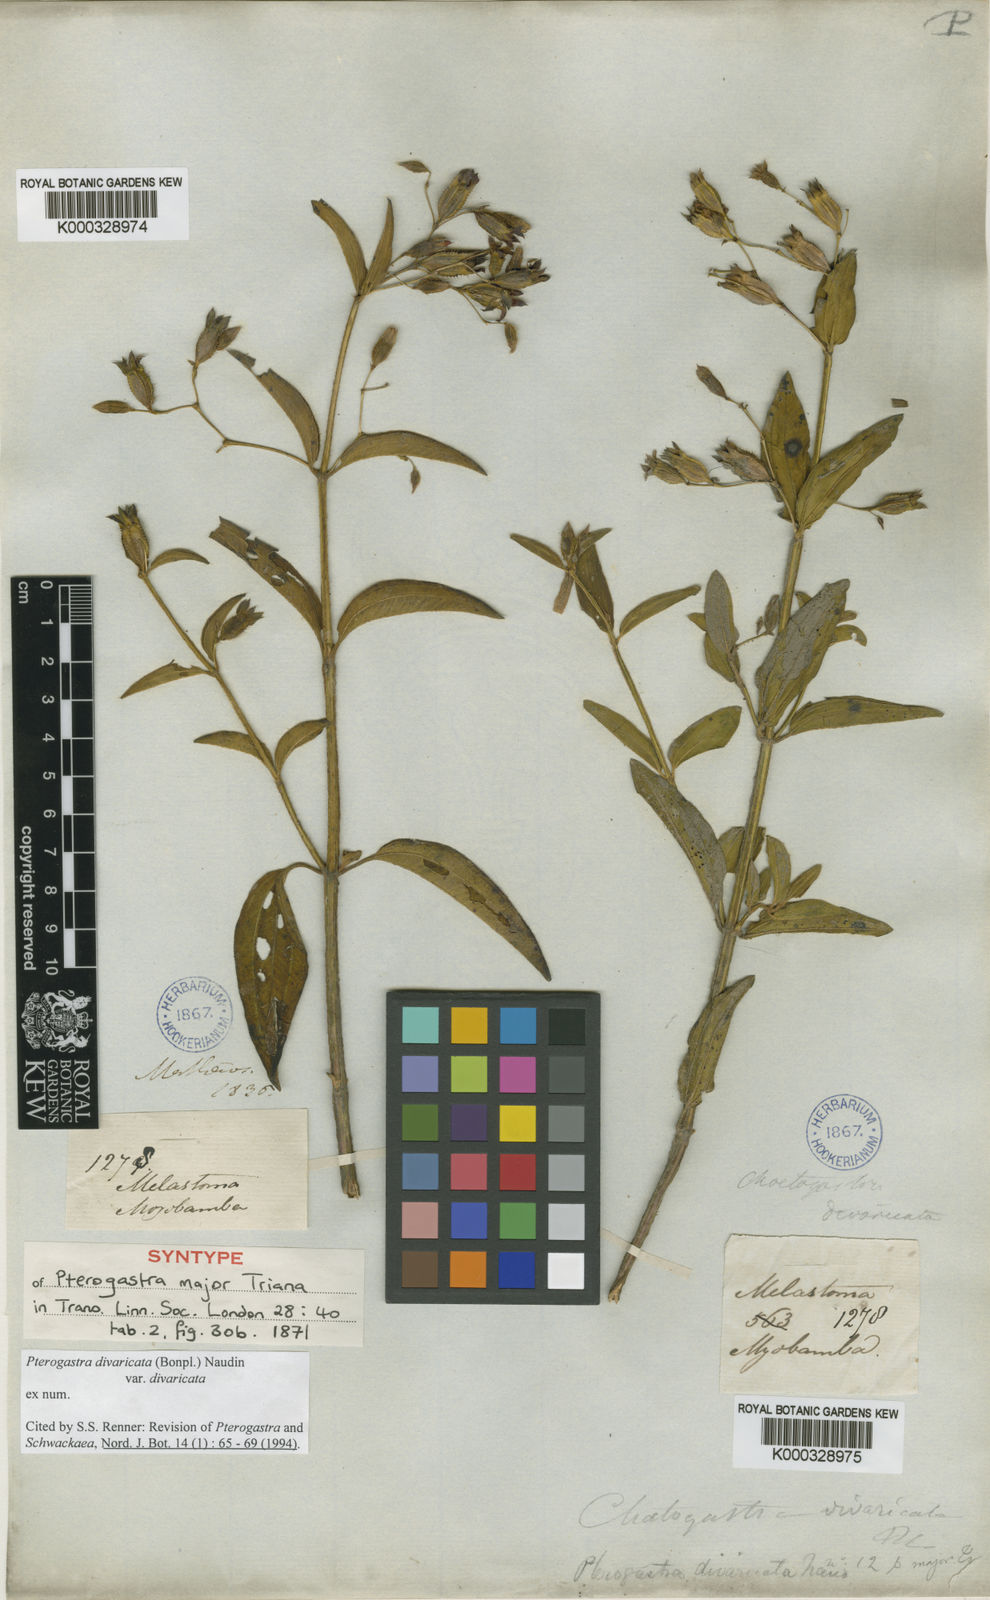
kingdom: Plantae
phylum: Tracheophyta
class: Magnoliopsida
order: Myrtales
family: Melastomataceae
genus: Pterogastra
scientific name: Pterogastra divaricata
